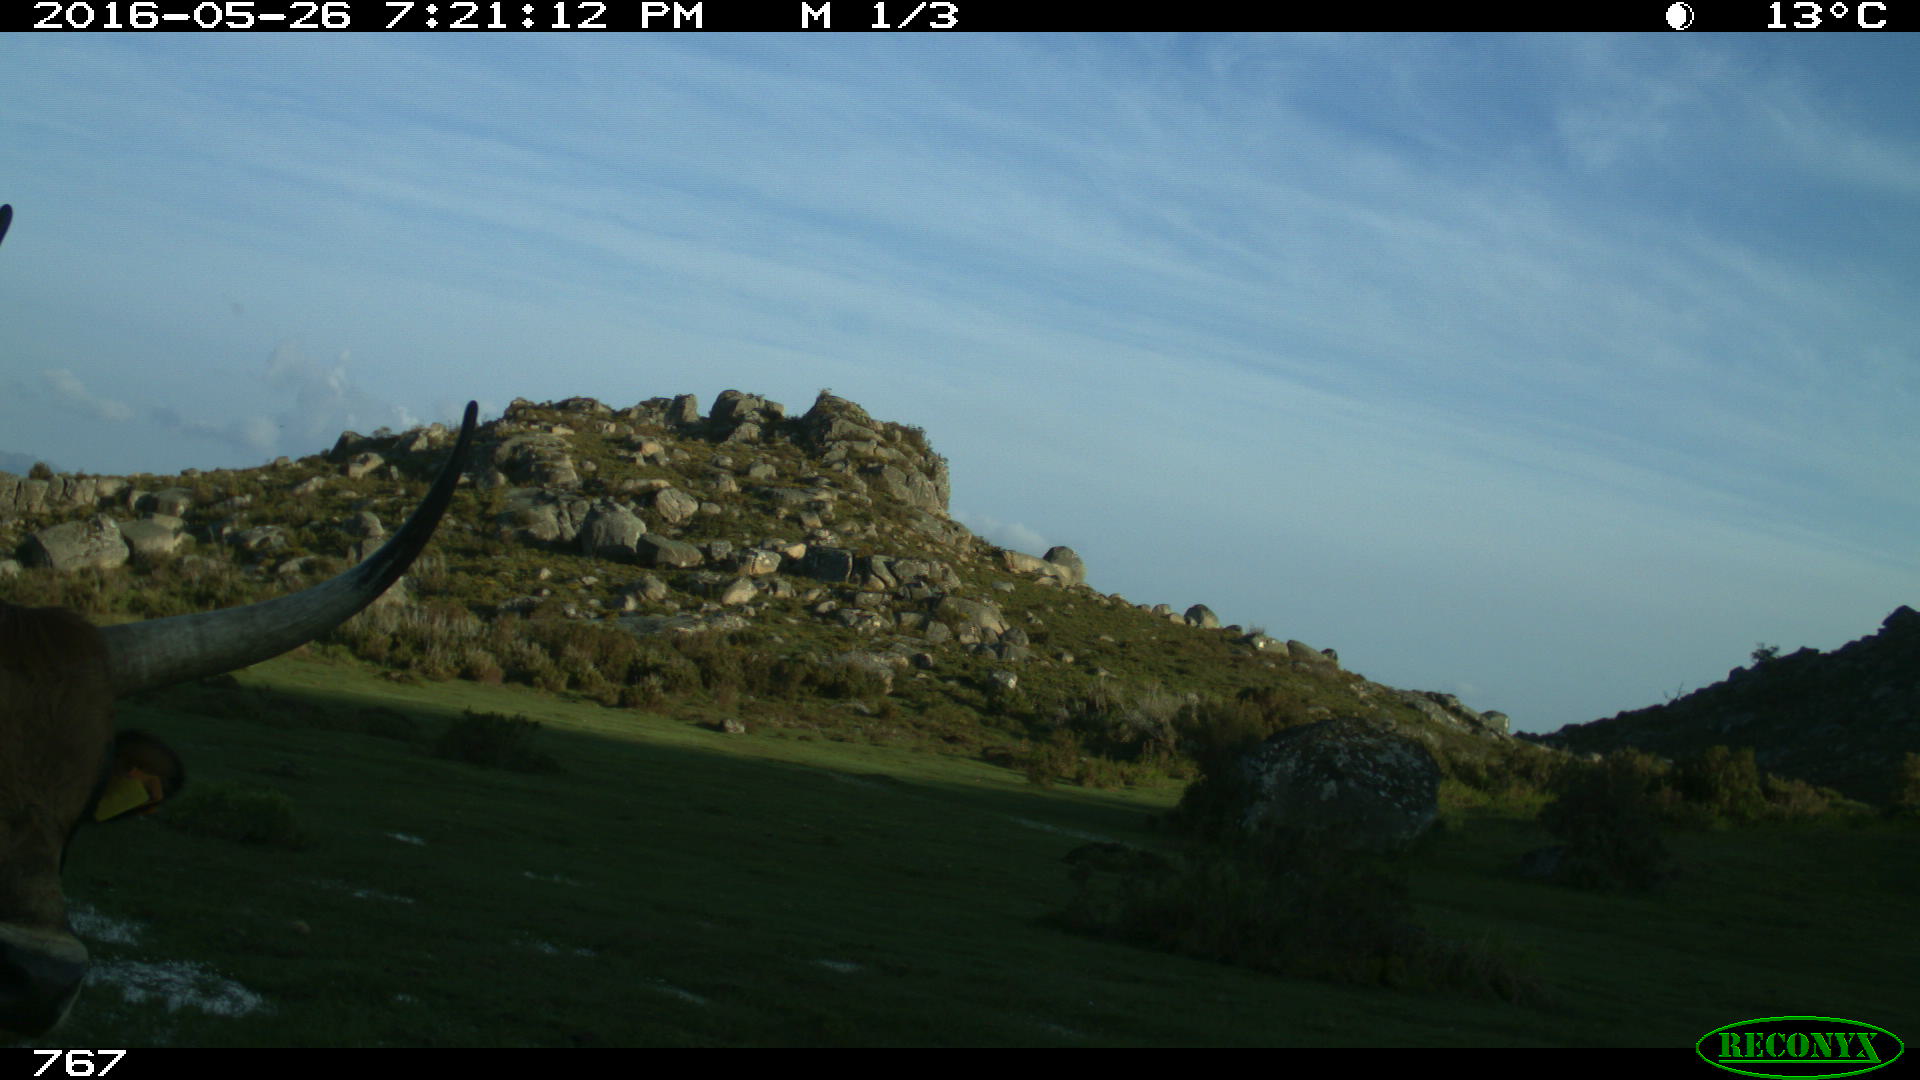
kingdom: Animalia
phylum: Chordata
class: Mammalia
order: Artiodactyla
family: Bovidae
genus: Bos
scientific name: Bos taurus
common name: Domesticated cattle
